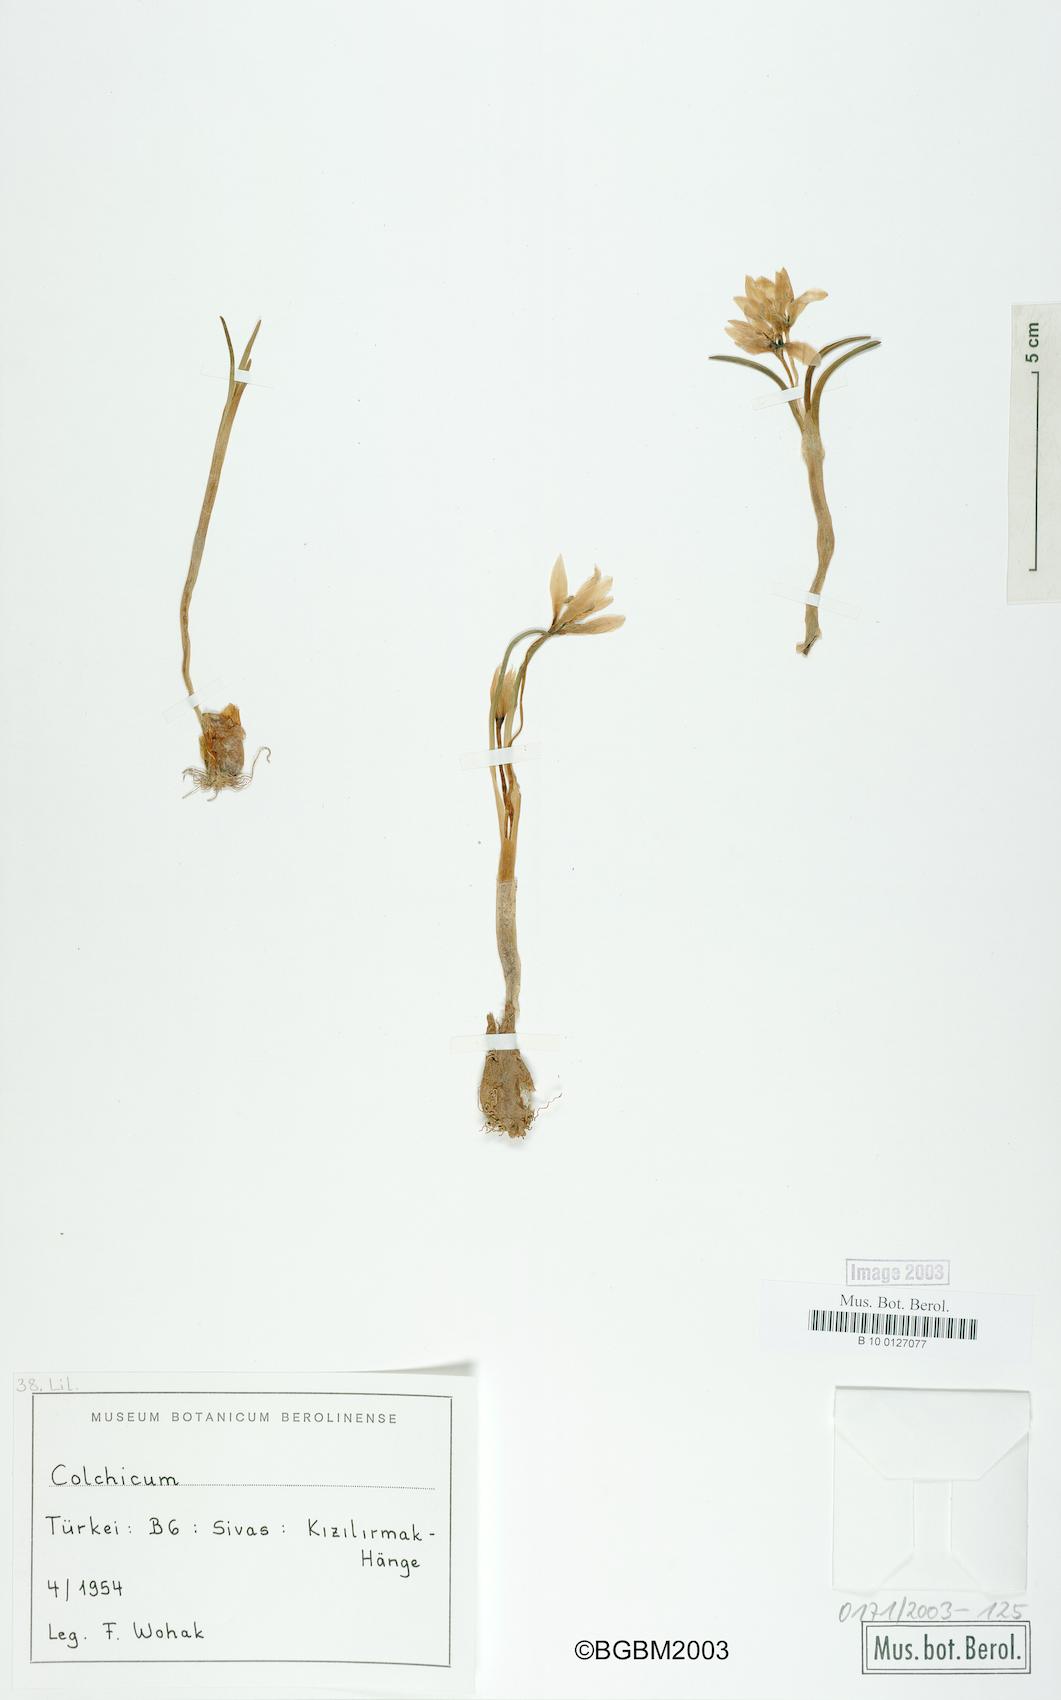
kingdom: Plantae
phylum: Tracheophyta
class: Liliopsida
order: Liliales
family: Colchicaceae
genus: Colchicum
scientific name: Colchicum
